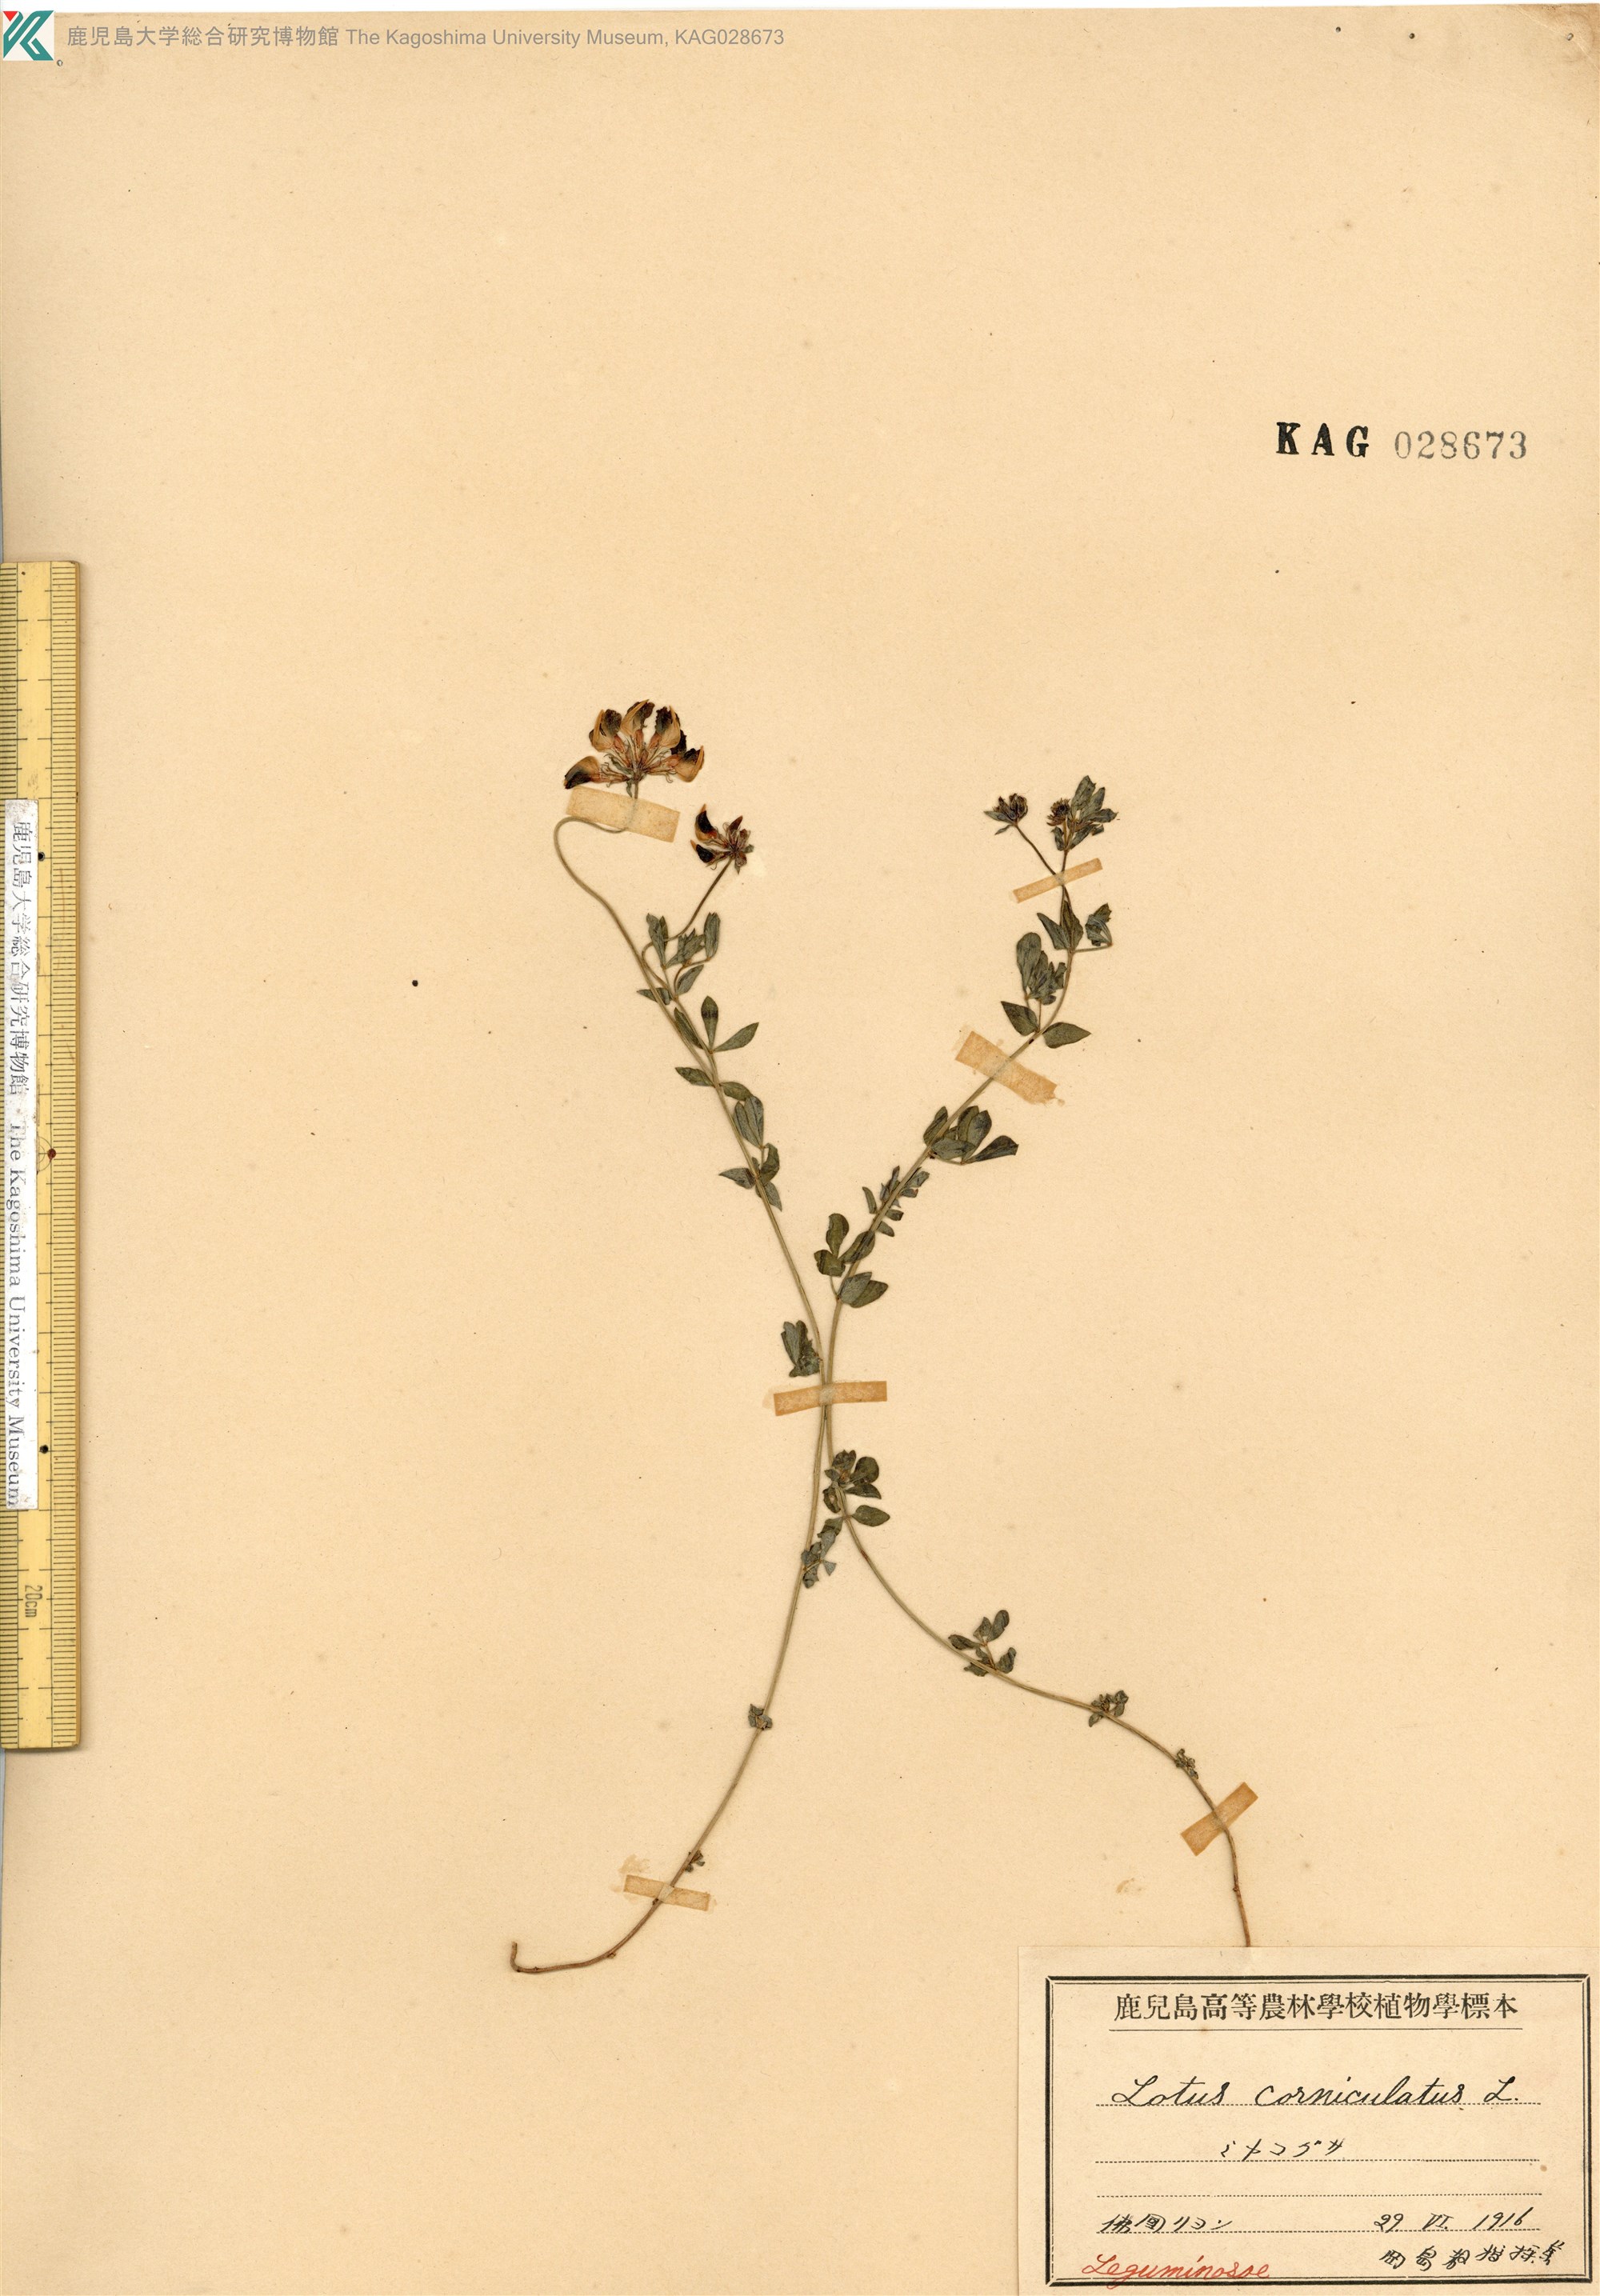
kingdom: Plantae
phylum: Tracheophyta
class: Magnoliopsida
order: Fabales
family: Fabaceae
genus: Lotus
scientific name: Lotus corniculatus
